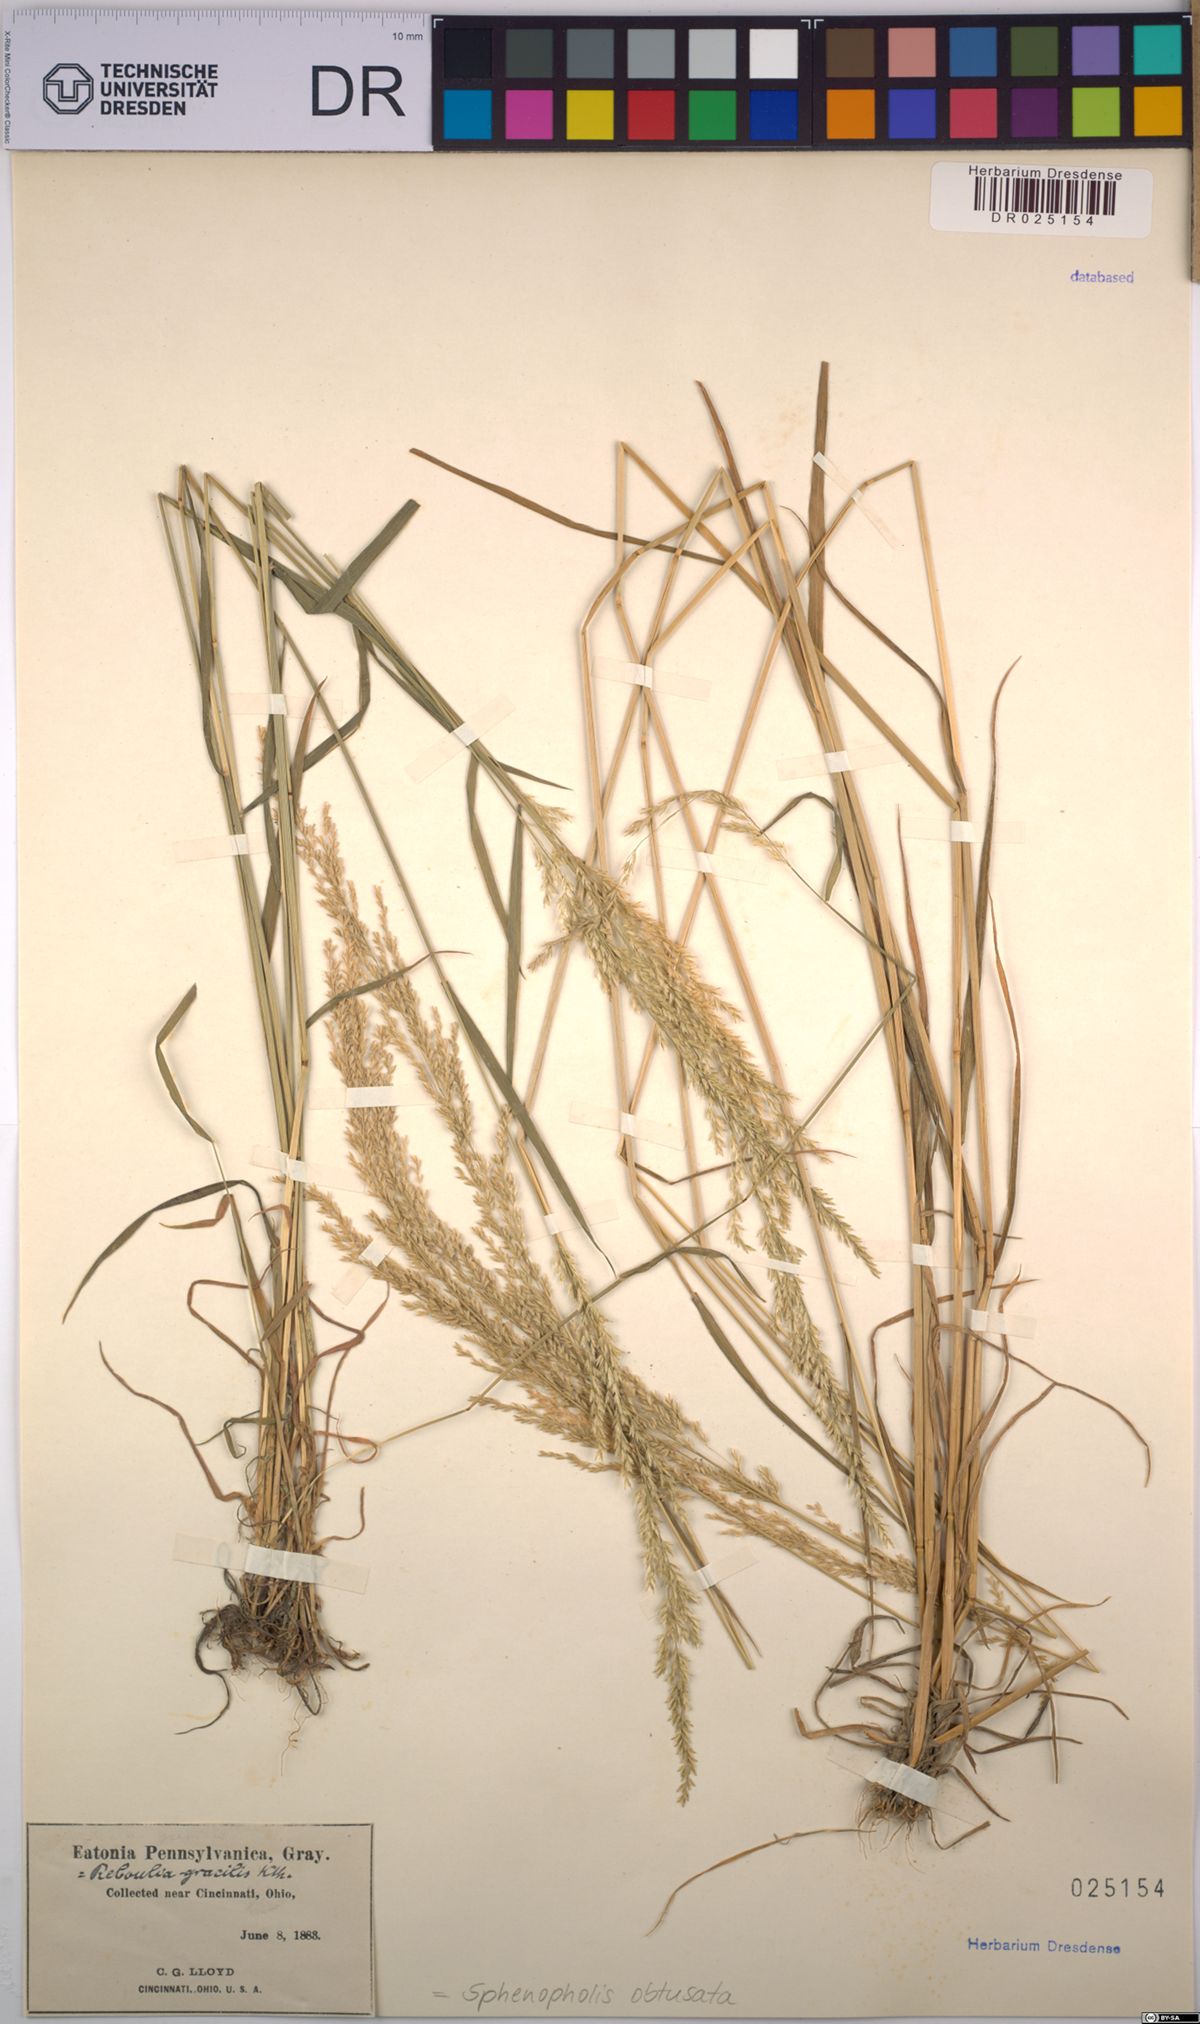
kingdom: Plantae
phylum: Tracheophyta
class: Liliopsida
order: Poales
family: Poaceae
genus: Sphenopholis
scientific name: Sphenopholis obtusata
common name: Prairie grass
